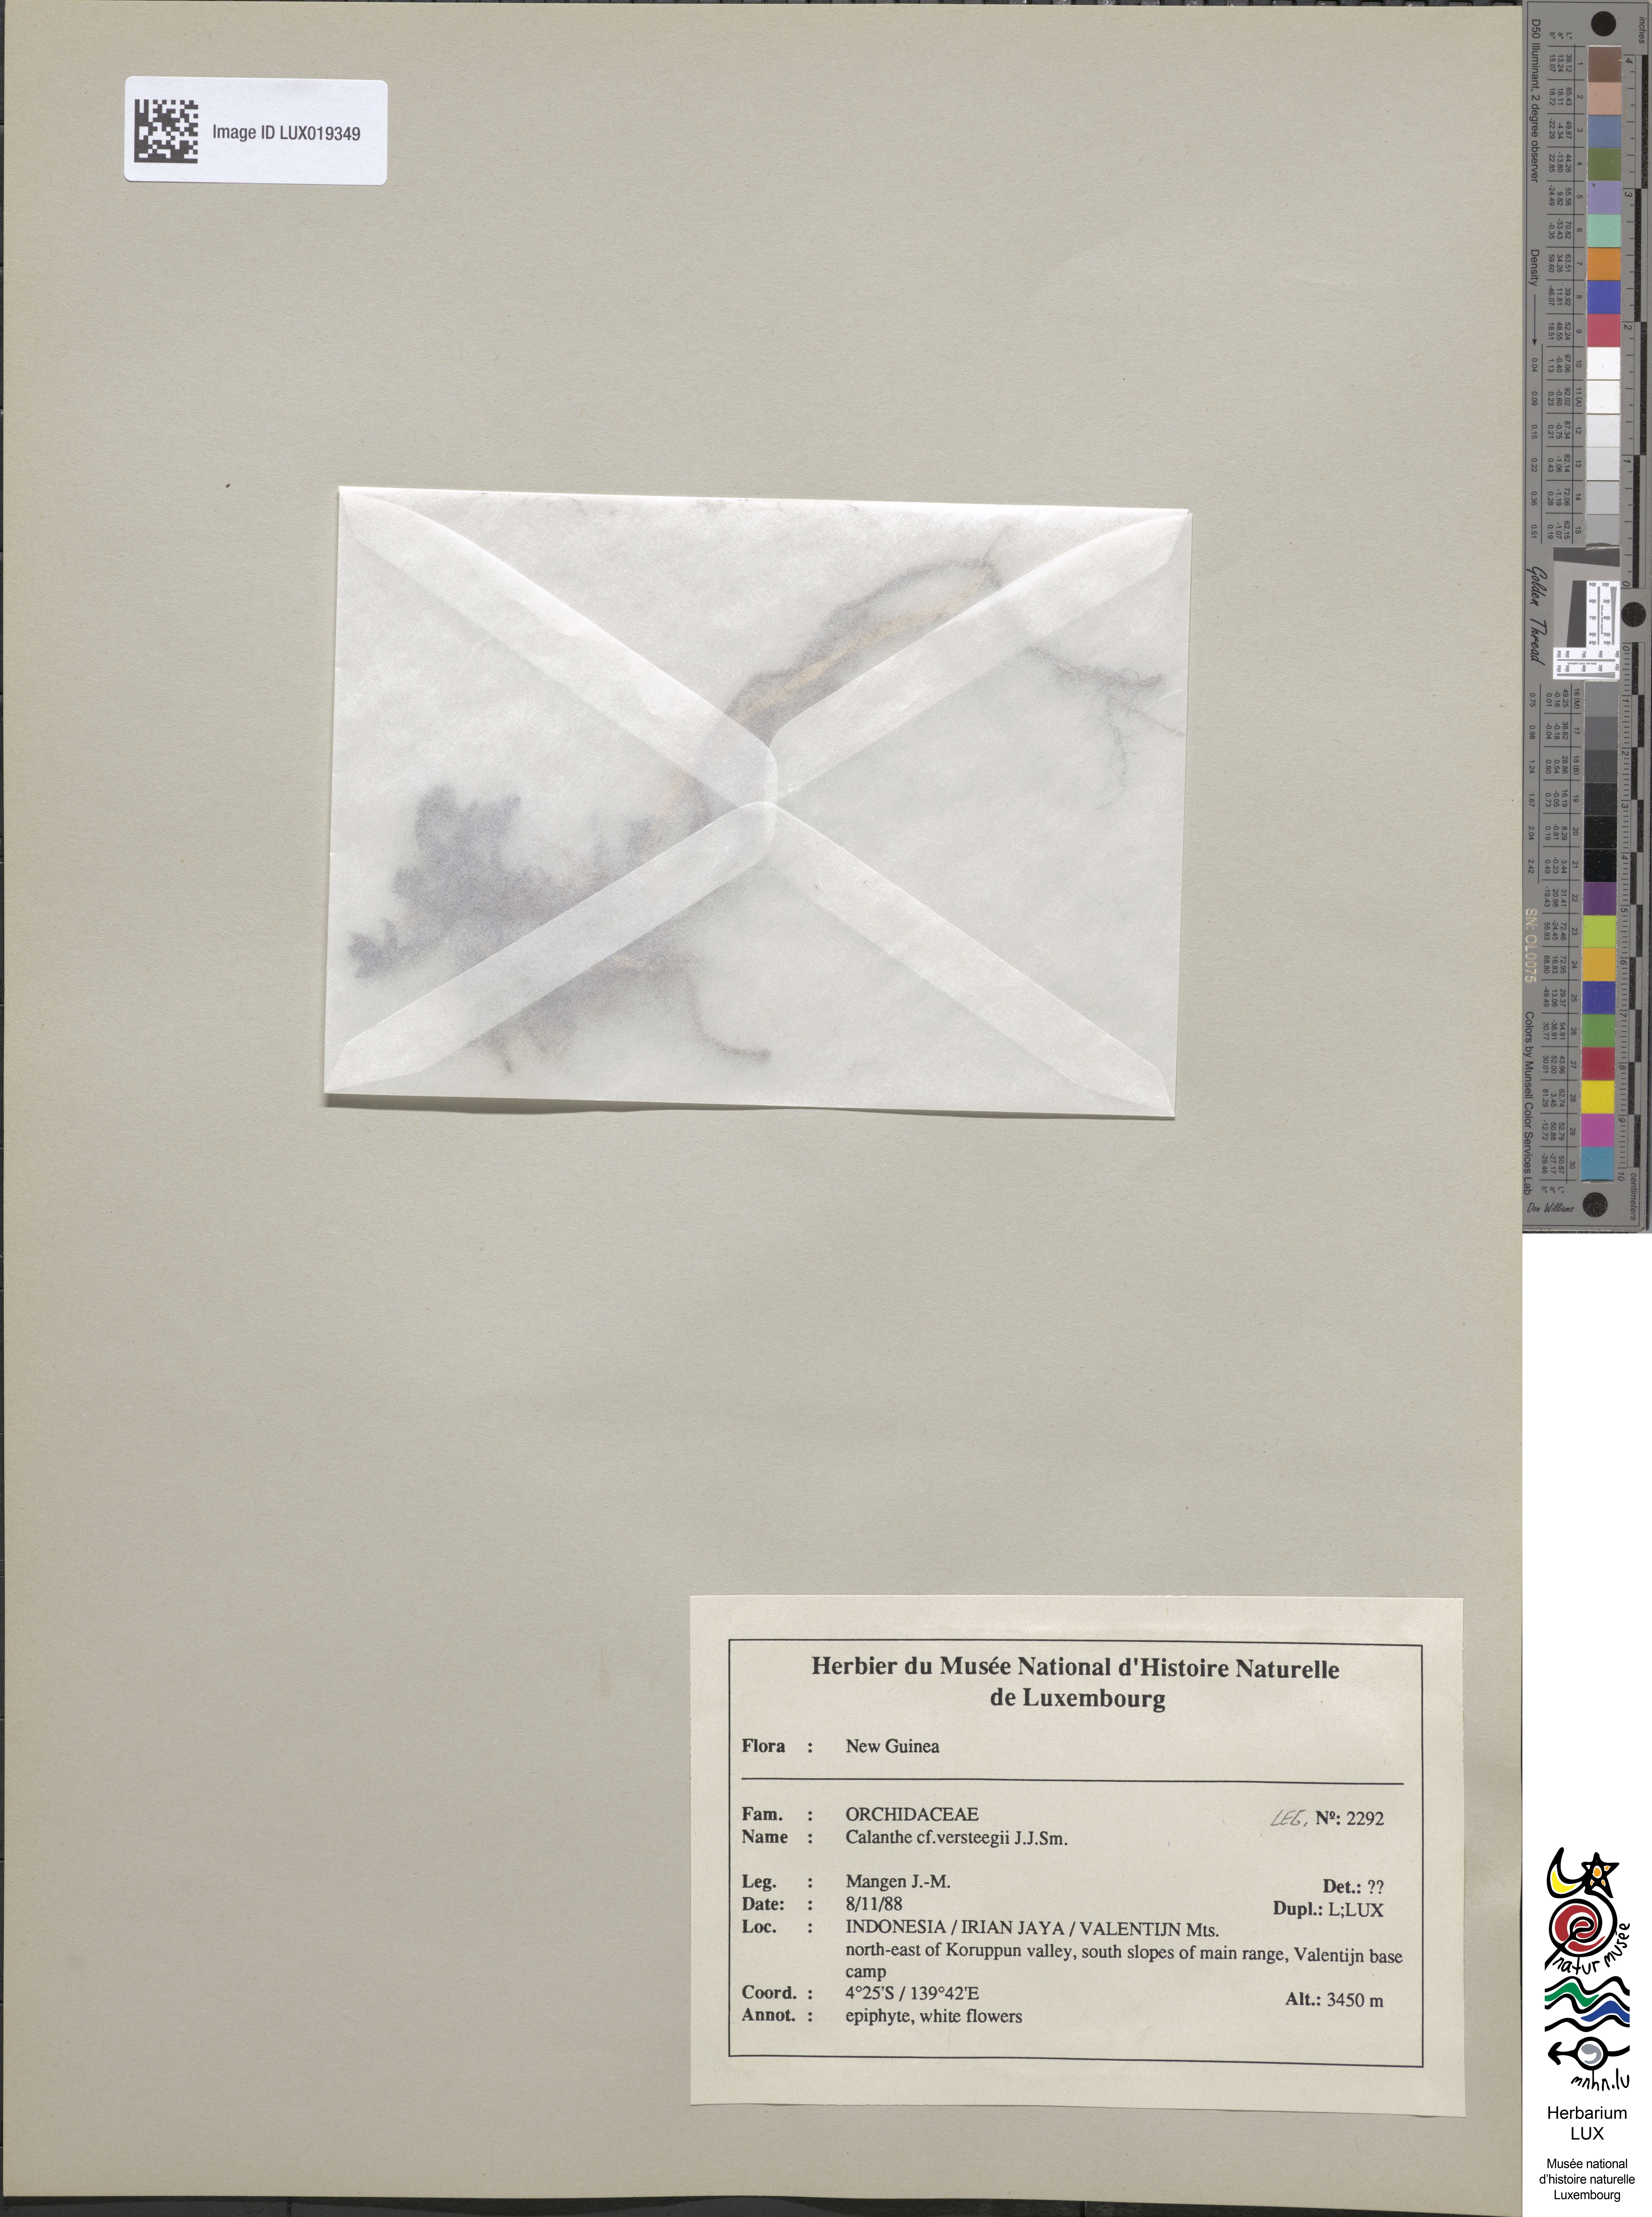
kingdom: Plantae
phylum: Tracheophyta
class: Liliopsida
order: Asparagales
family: Orchidaceae
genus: Calanthe
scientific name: Calanthe versteegii
